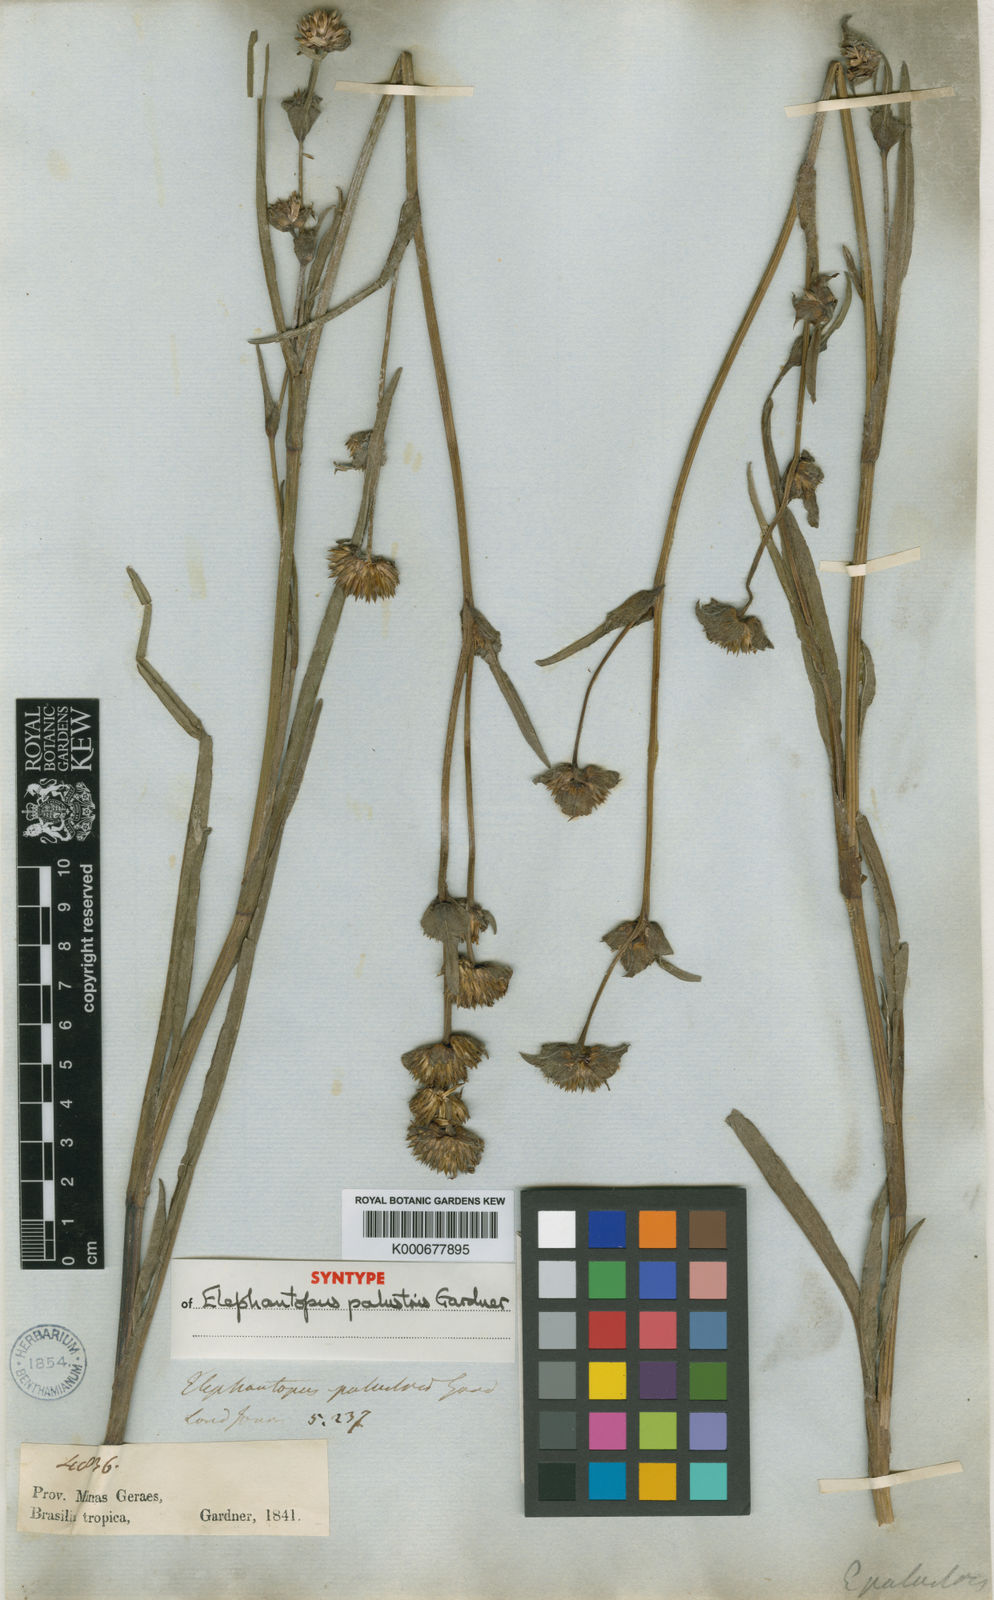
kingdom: Plantae
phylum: Tracheophyta
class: Magnoliopsida
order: Asterales
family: Asteraceae
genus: Elephantopus
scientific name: Elephantopus palustris
